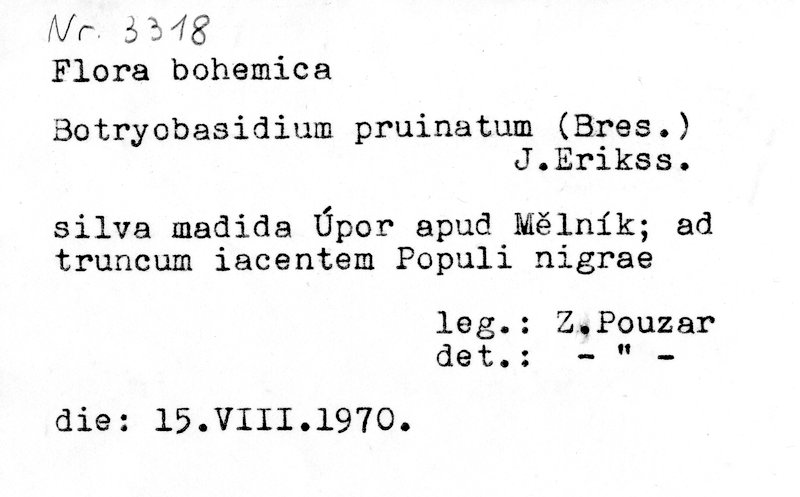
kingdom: Fungi
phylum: Basidiomycota
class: Agaricomycetes
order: Cantharellales
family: Botryobasidiaceae
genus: Botryobasidium
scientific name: Botryobasidium pruinatum
